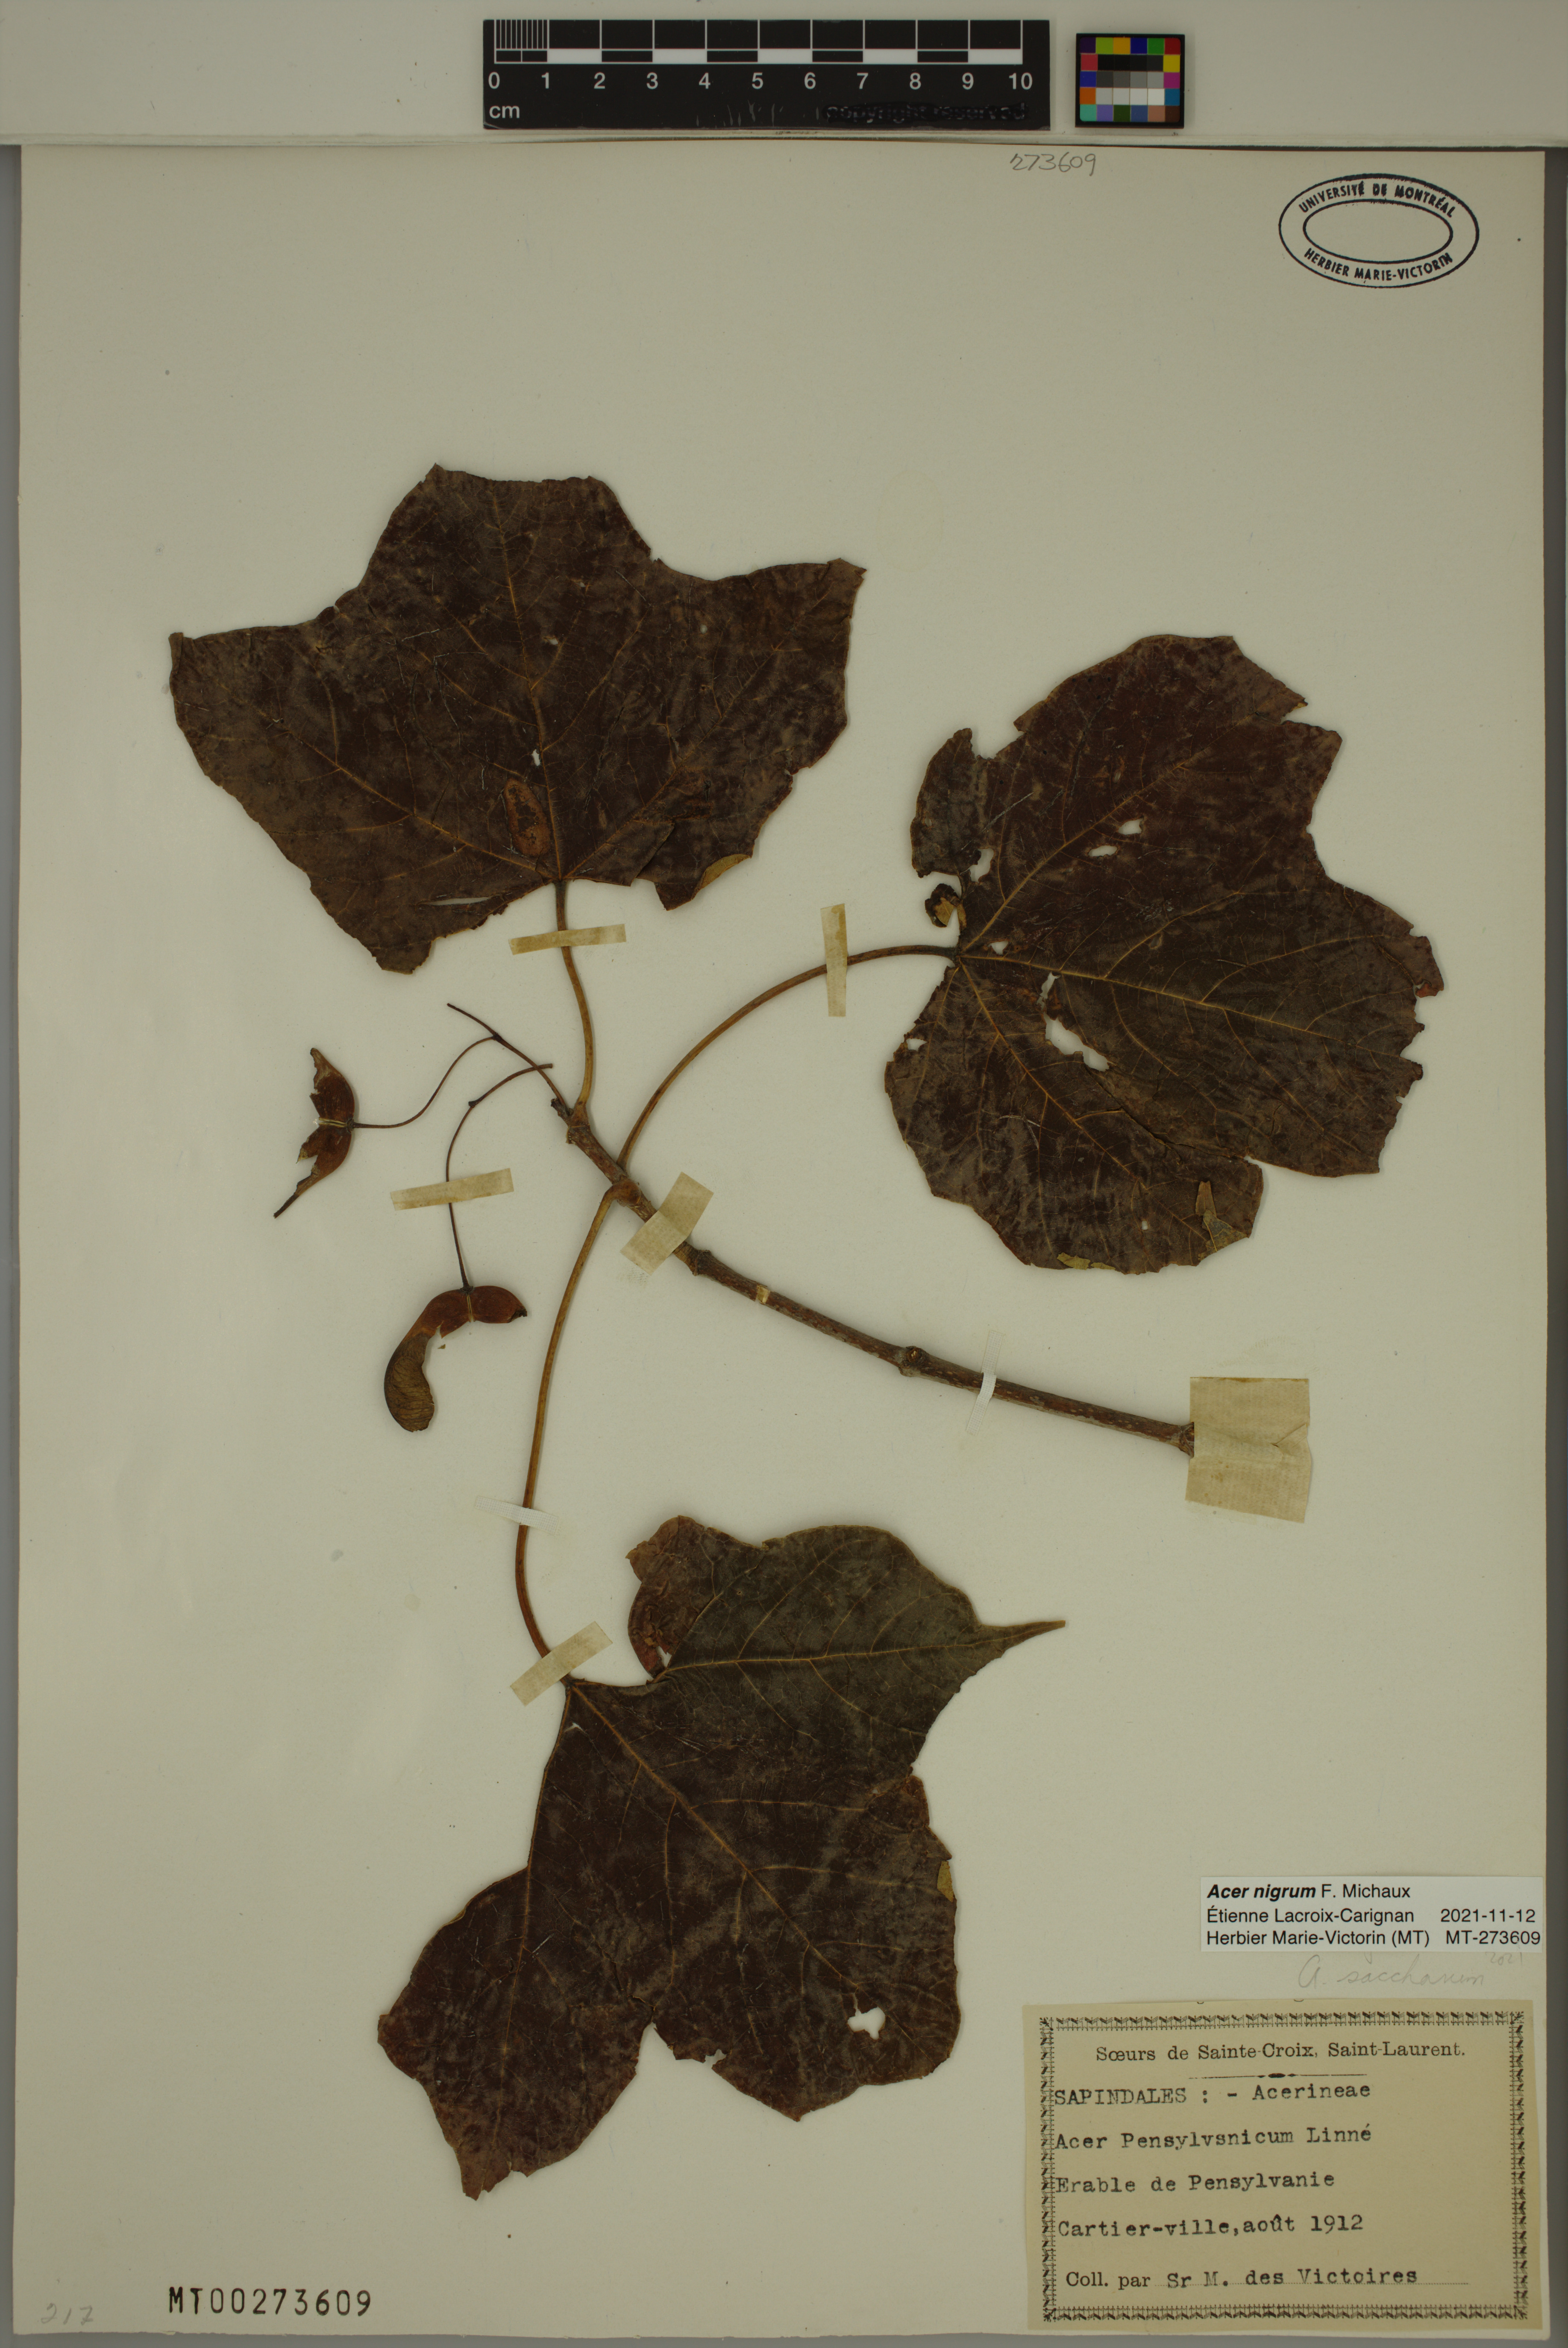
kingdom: Plantae
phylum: Tracheophyta
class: Magnoliopsida
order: Sapindales
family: Sapindaceae
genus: Acer
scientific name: Acer nigrum
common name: Black maple
